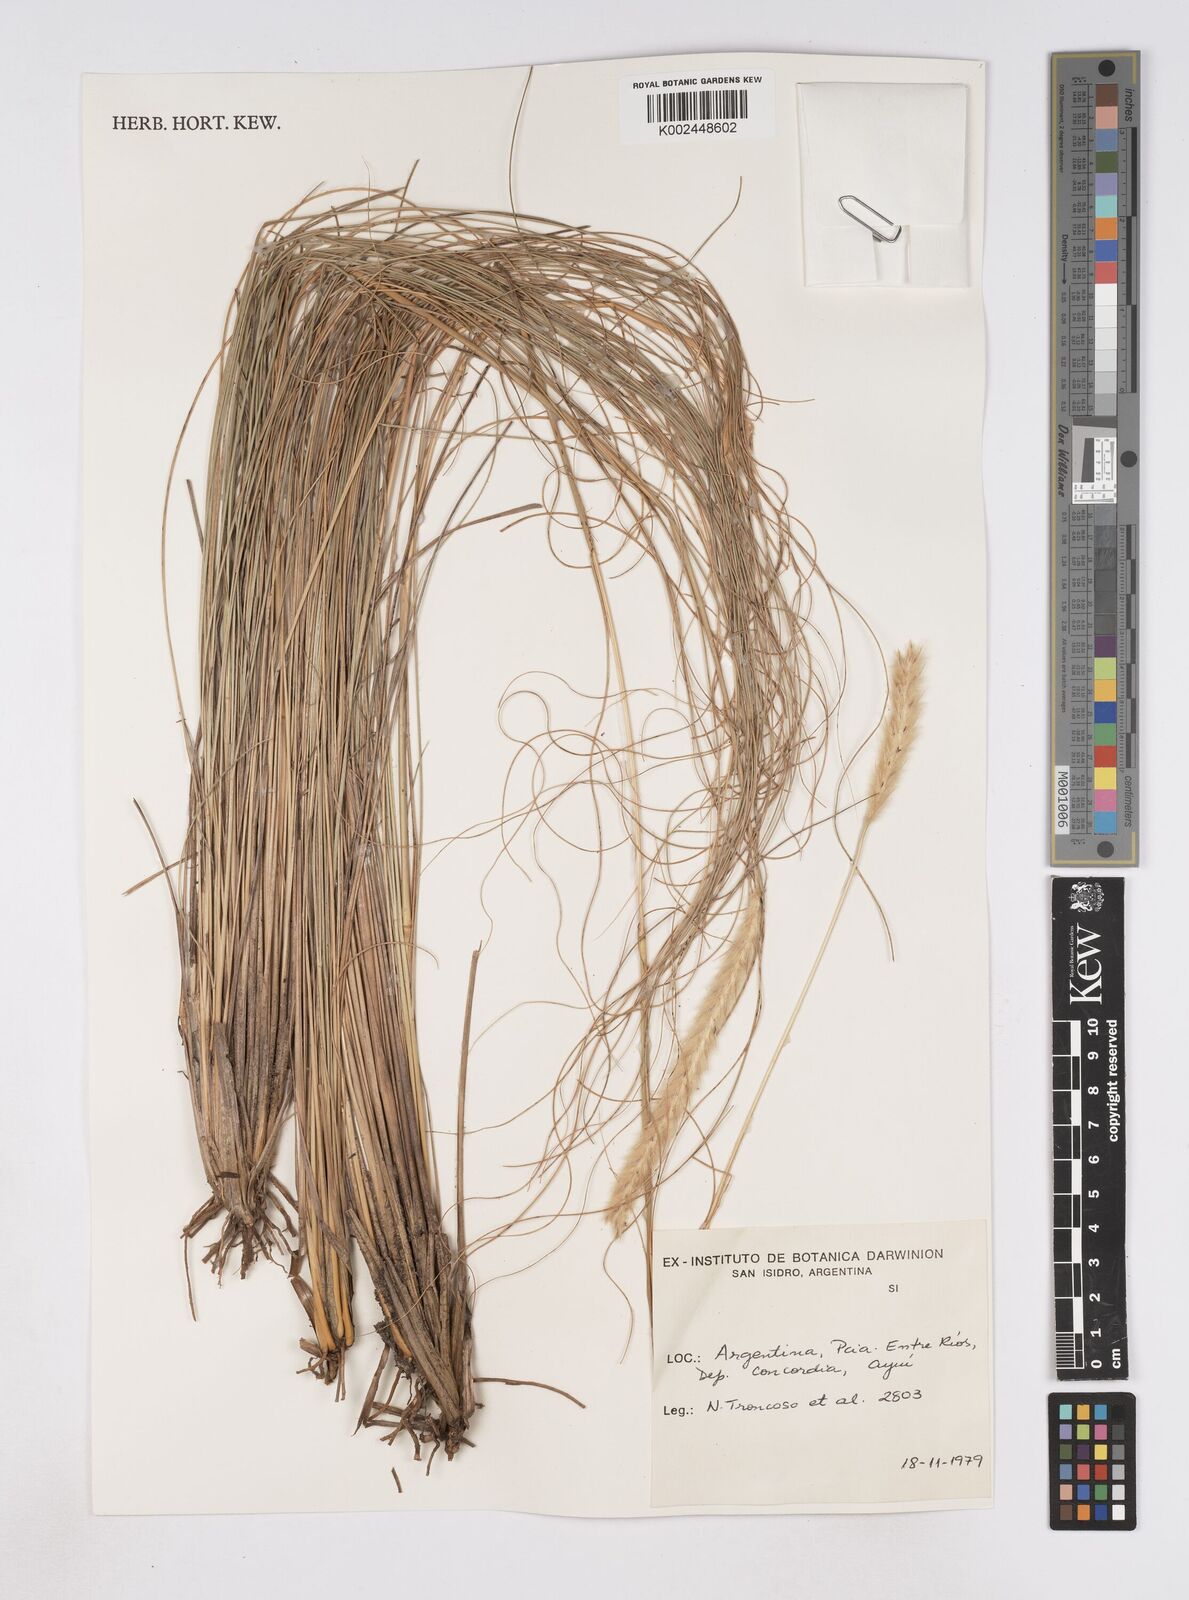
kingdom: Plantae
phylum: Tracheophyta
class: Liliopsida
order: Poales
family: Poaceae
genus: Elionurus
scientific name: Elionurus muticus
